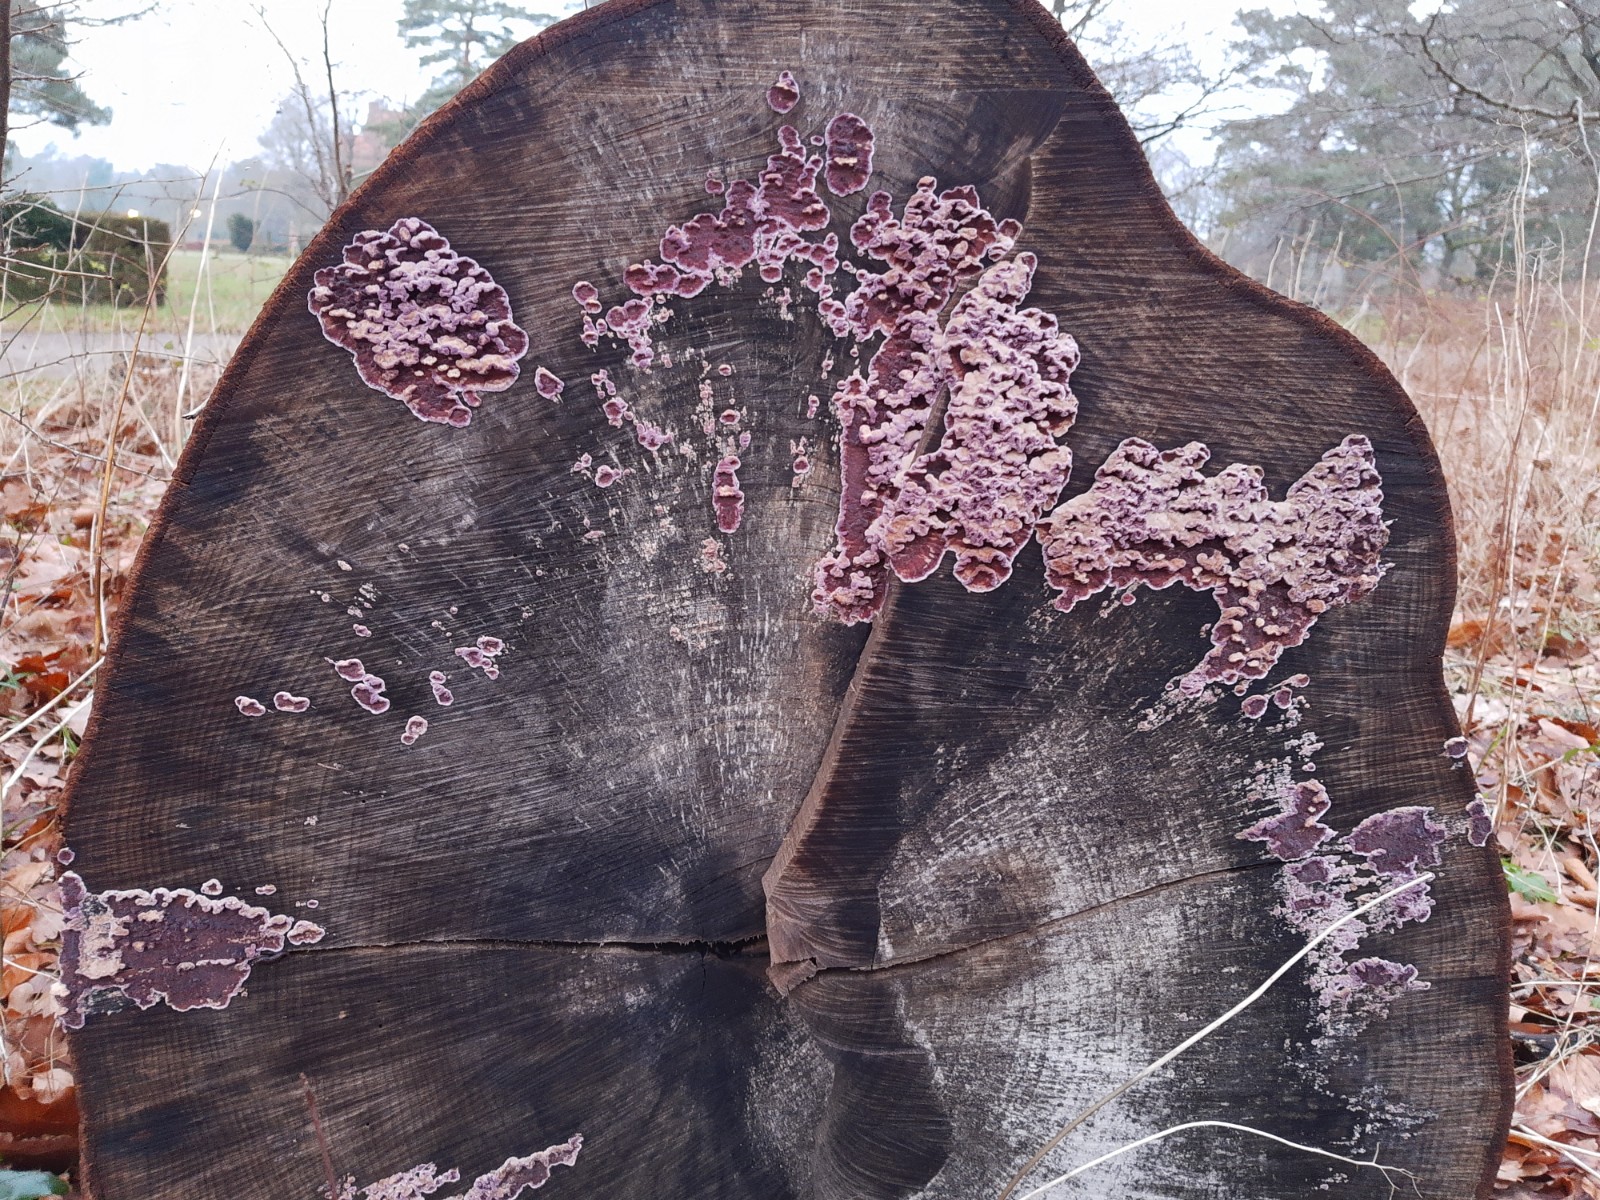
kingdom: Fungi
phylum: Basidiomycota
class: Agaricomycetes
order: Agaricales
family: Cyphellaceae
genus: Chondrostereum
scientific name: Chondrostereum purpureum
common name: purpurlædersvamp
